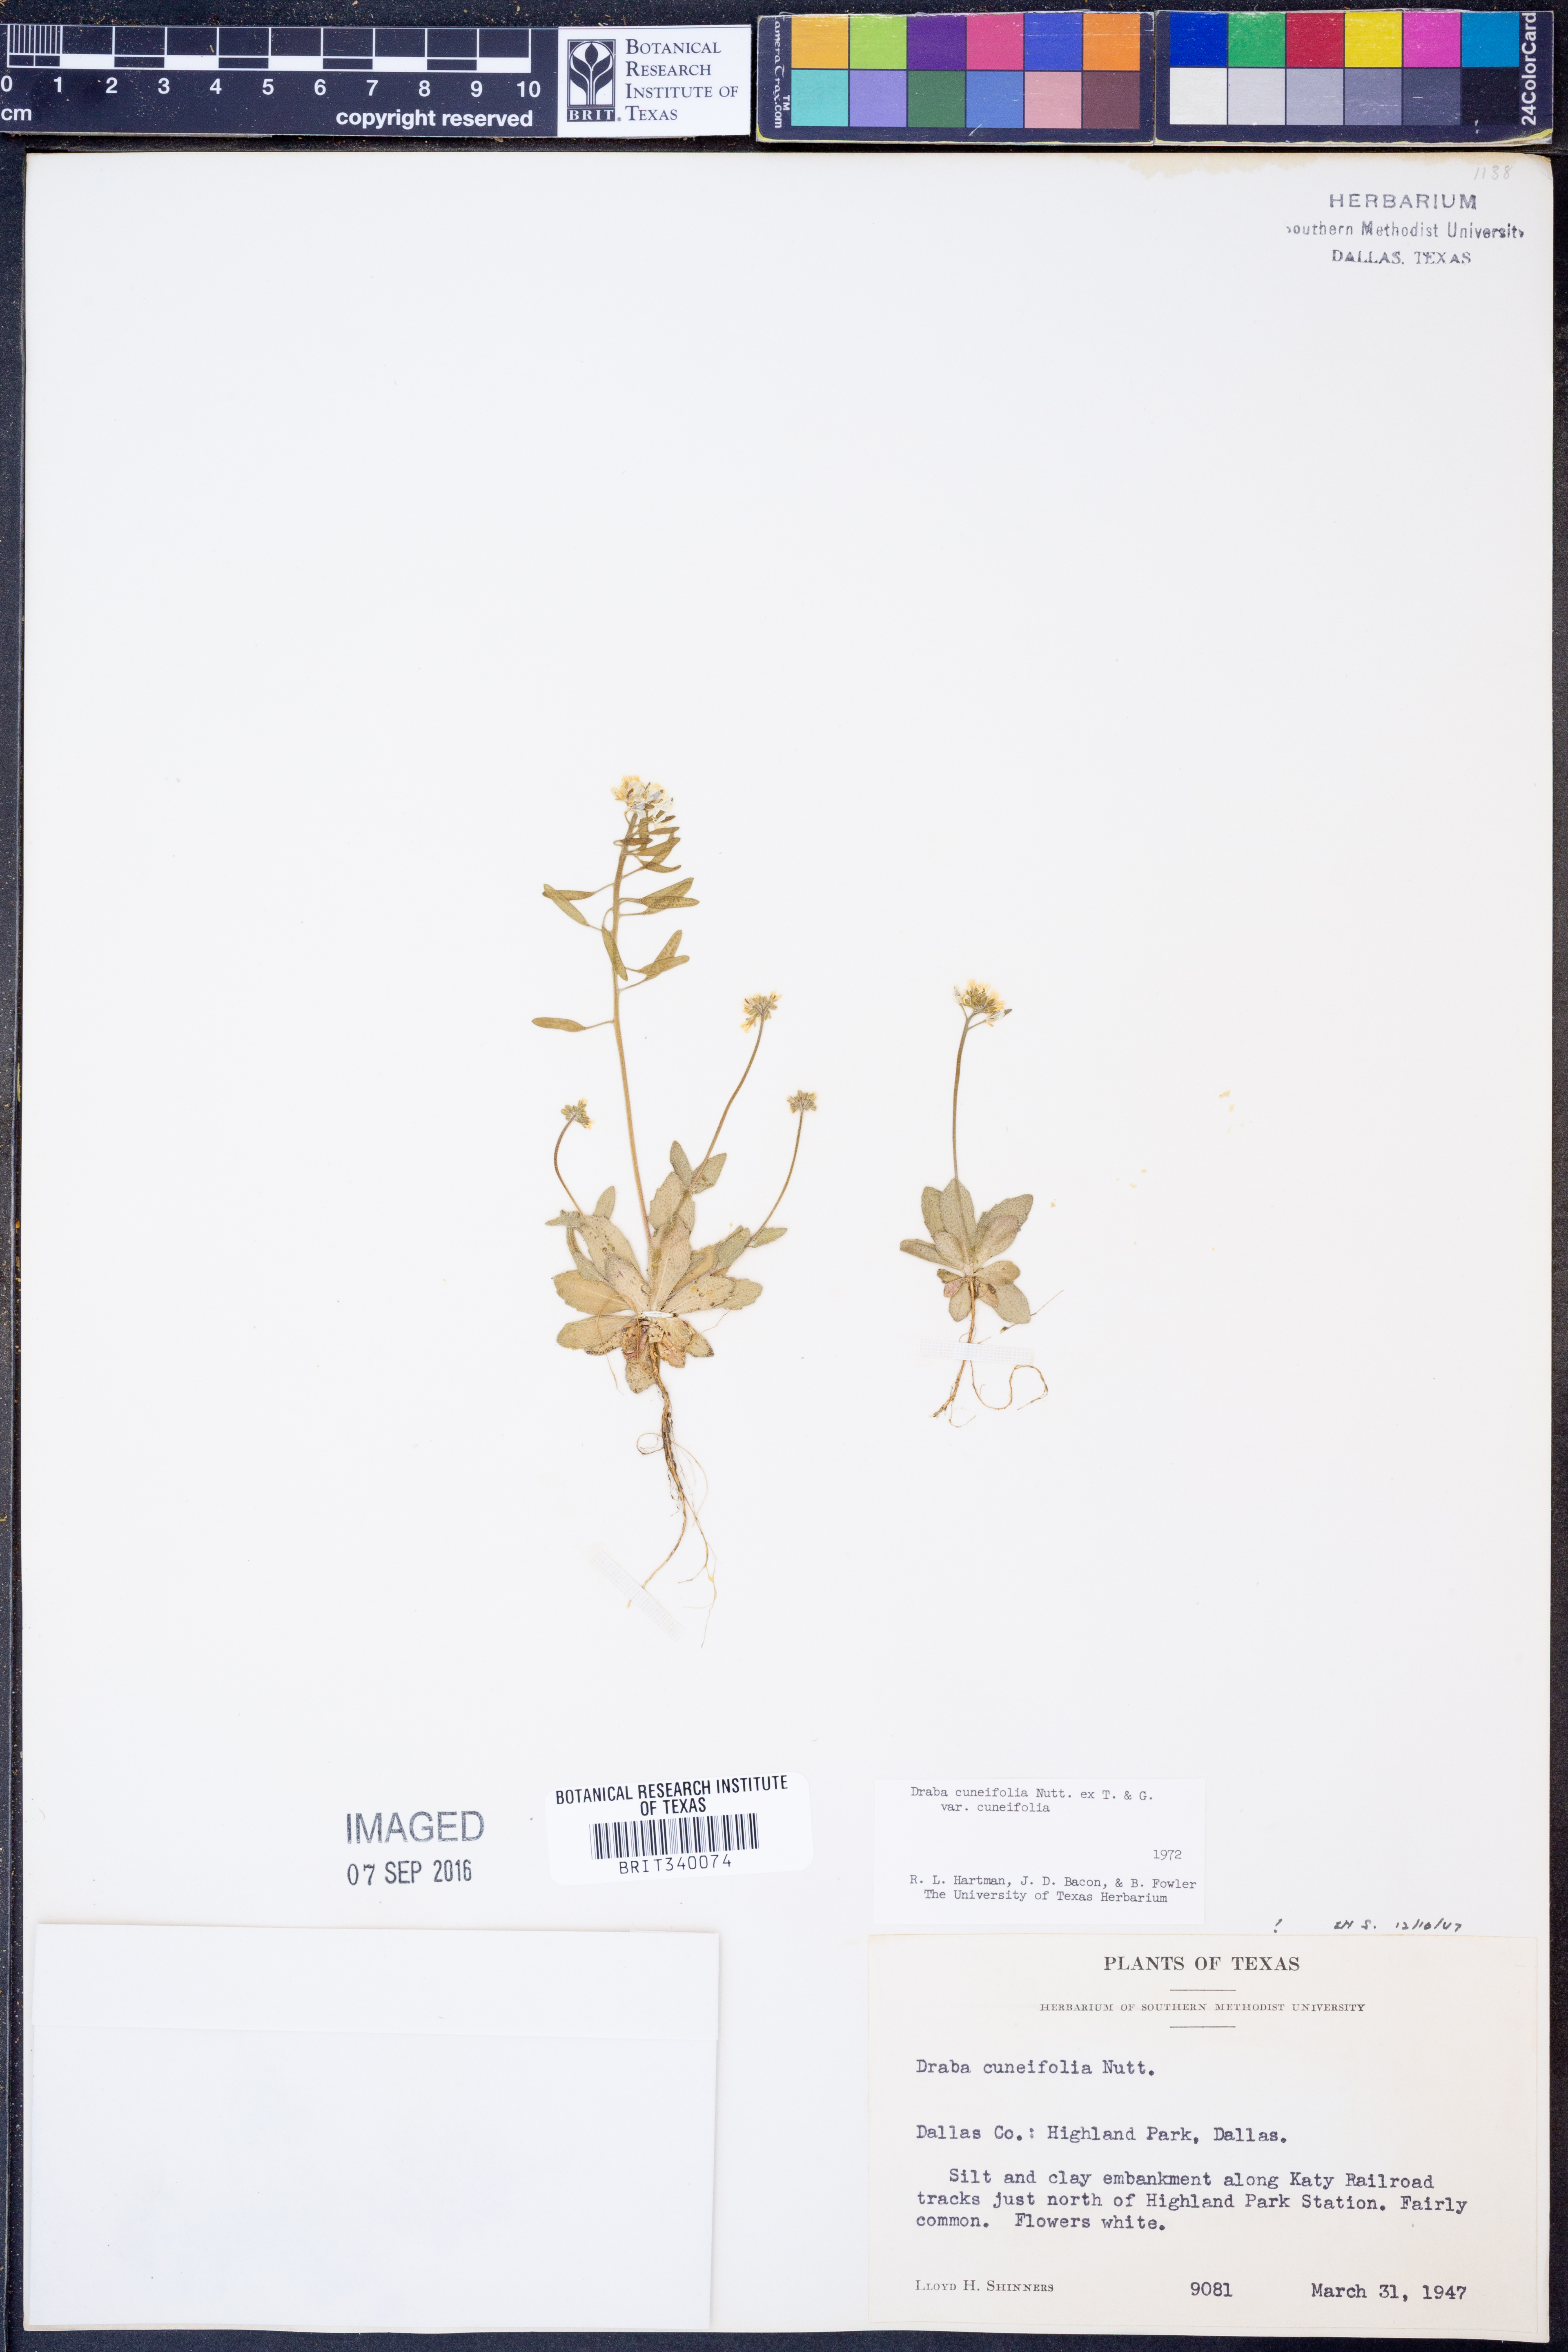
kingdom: Plantae
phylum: Tracheophyta
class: Magnoliopsida
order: Brassicales
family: Brassicaceae
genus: Tomostima
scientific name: Tomostima cuneifolia
